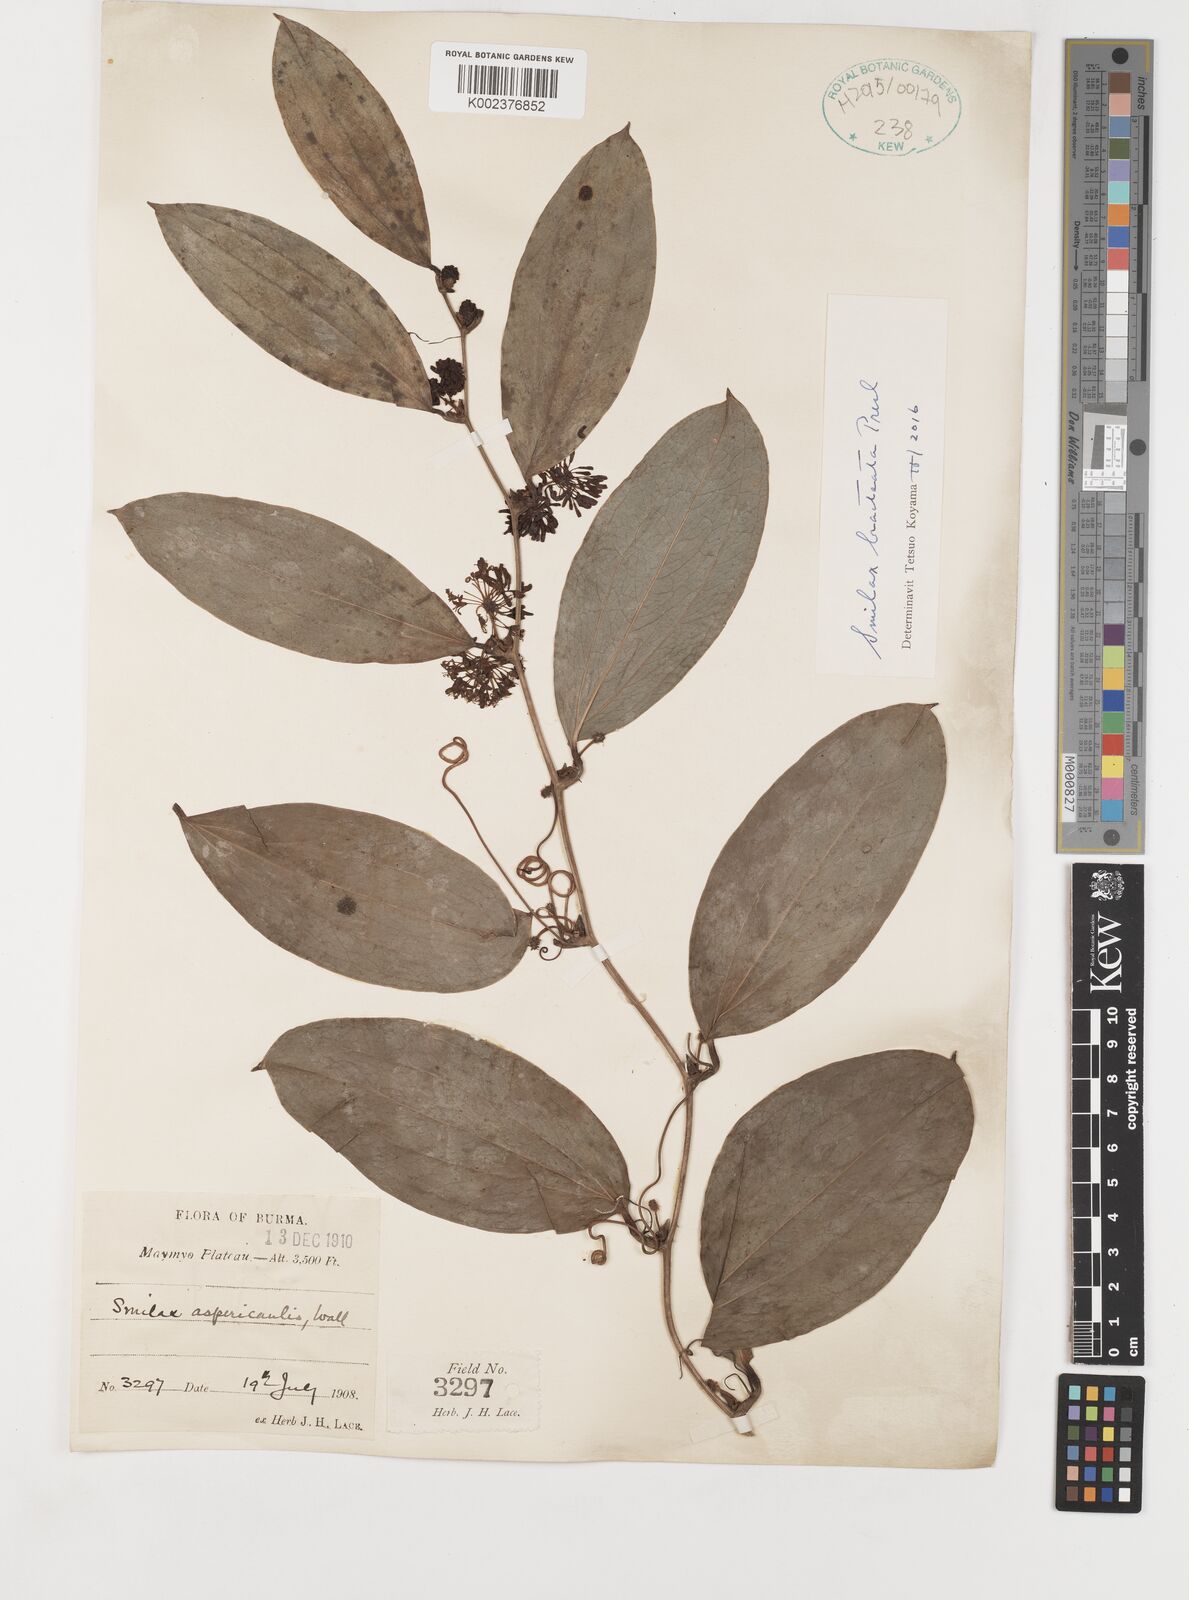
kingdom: Plantae
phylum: Tracheophyta
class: Liliopsida
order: Liliales
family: Smilacaceae
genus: Smilax
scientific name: Smilax bracteata
